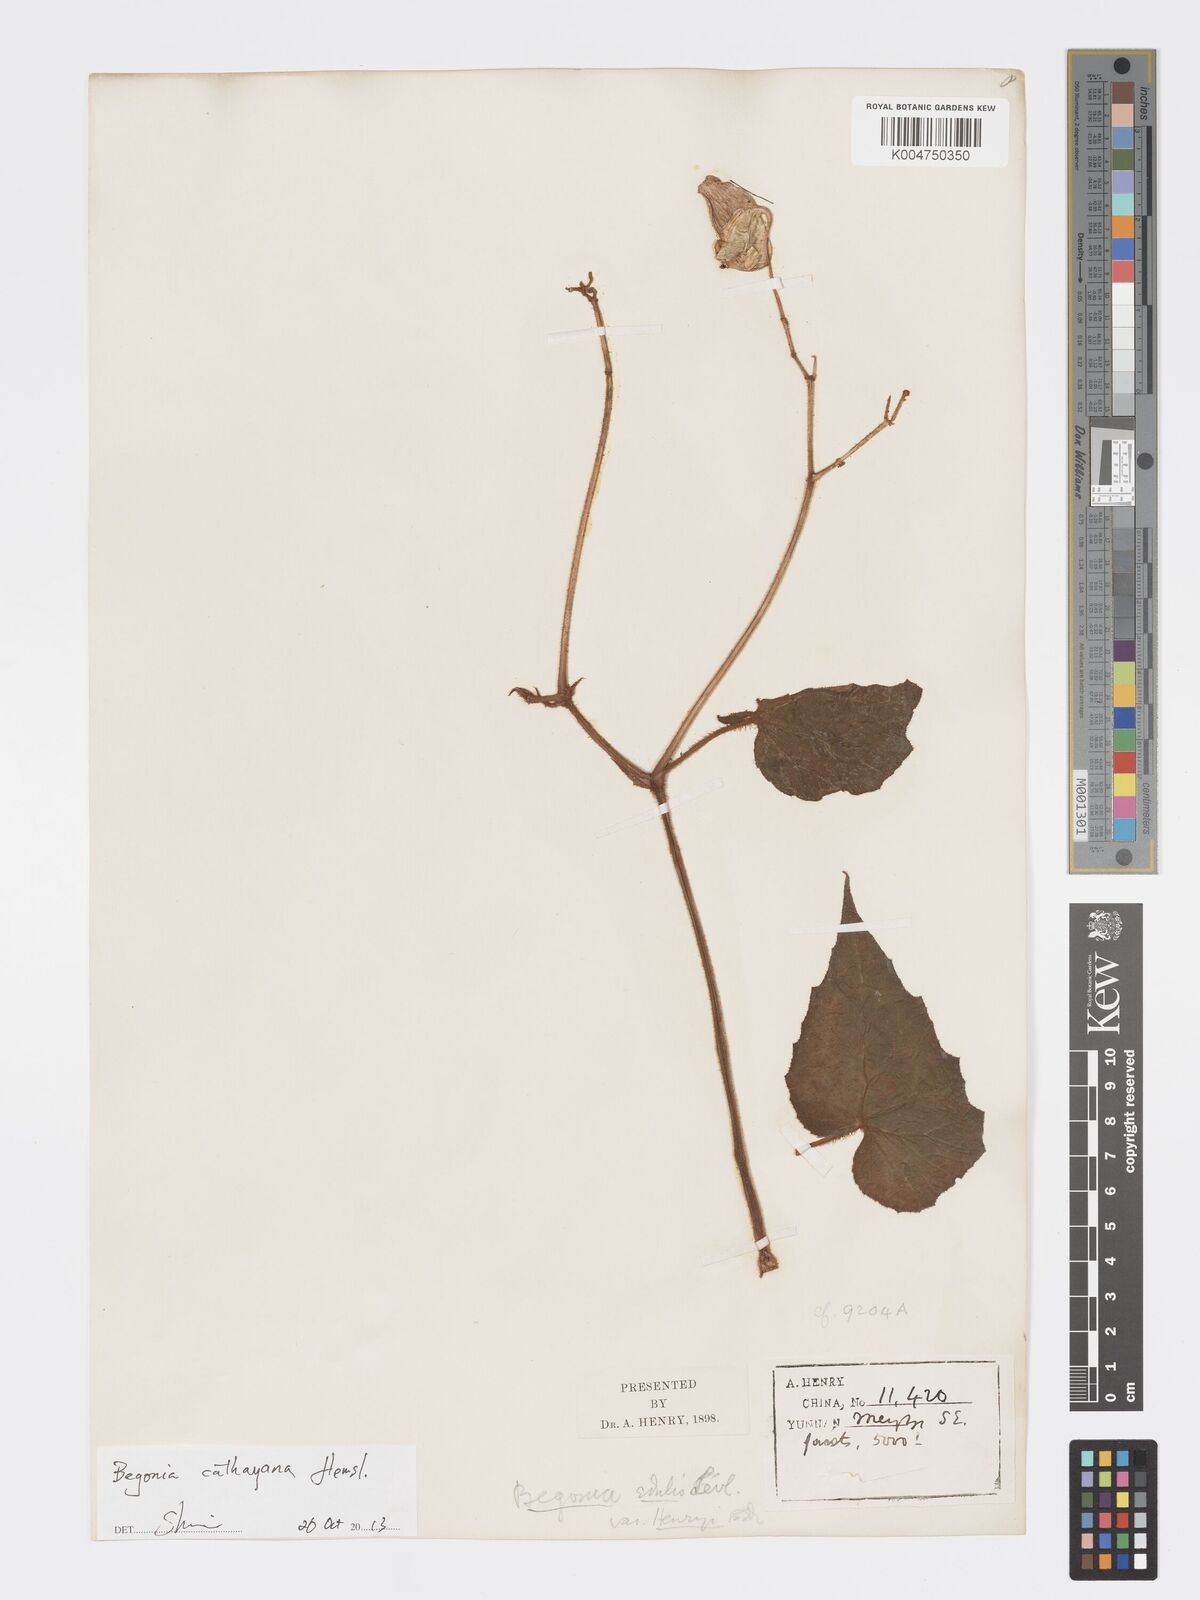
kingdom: Plantae
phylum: Tracheophyta
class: Magnoliopsida
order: Cucurbitales
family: Begoniaceae
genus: Begonia
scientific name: Begonia cathayana
